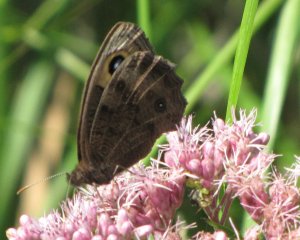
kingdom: Animalia
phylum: Arthropoda
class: Insecta
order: Lepidoptera
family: Nymphalidae
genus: Cercyonis
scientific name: Cercyonis pegala
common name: Common Wood-Nymph
